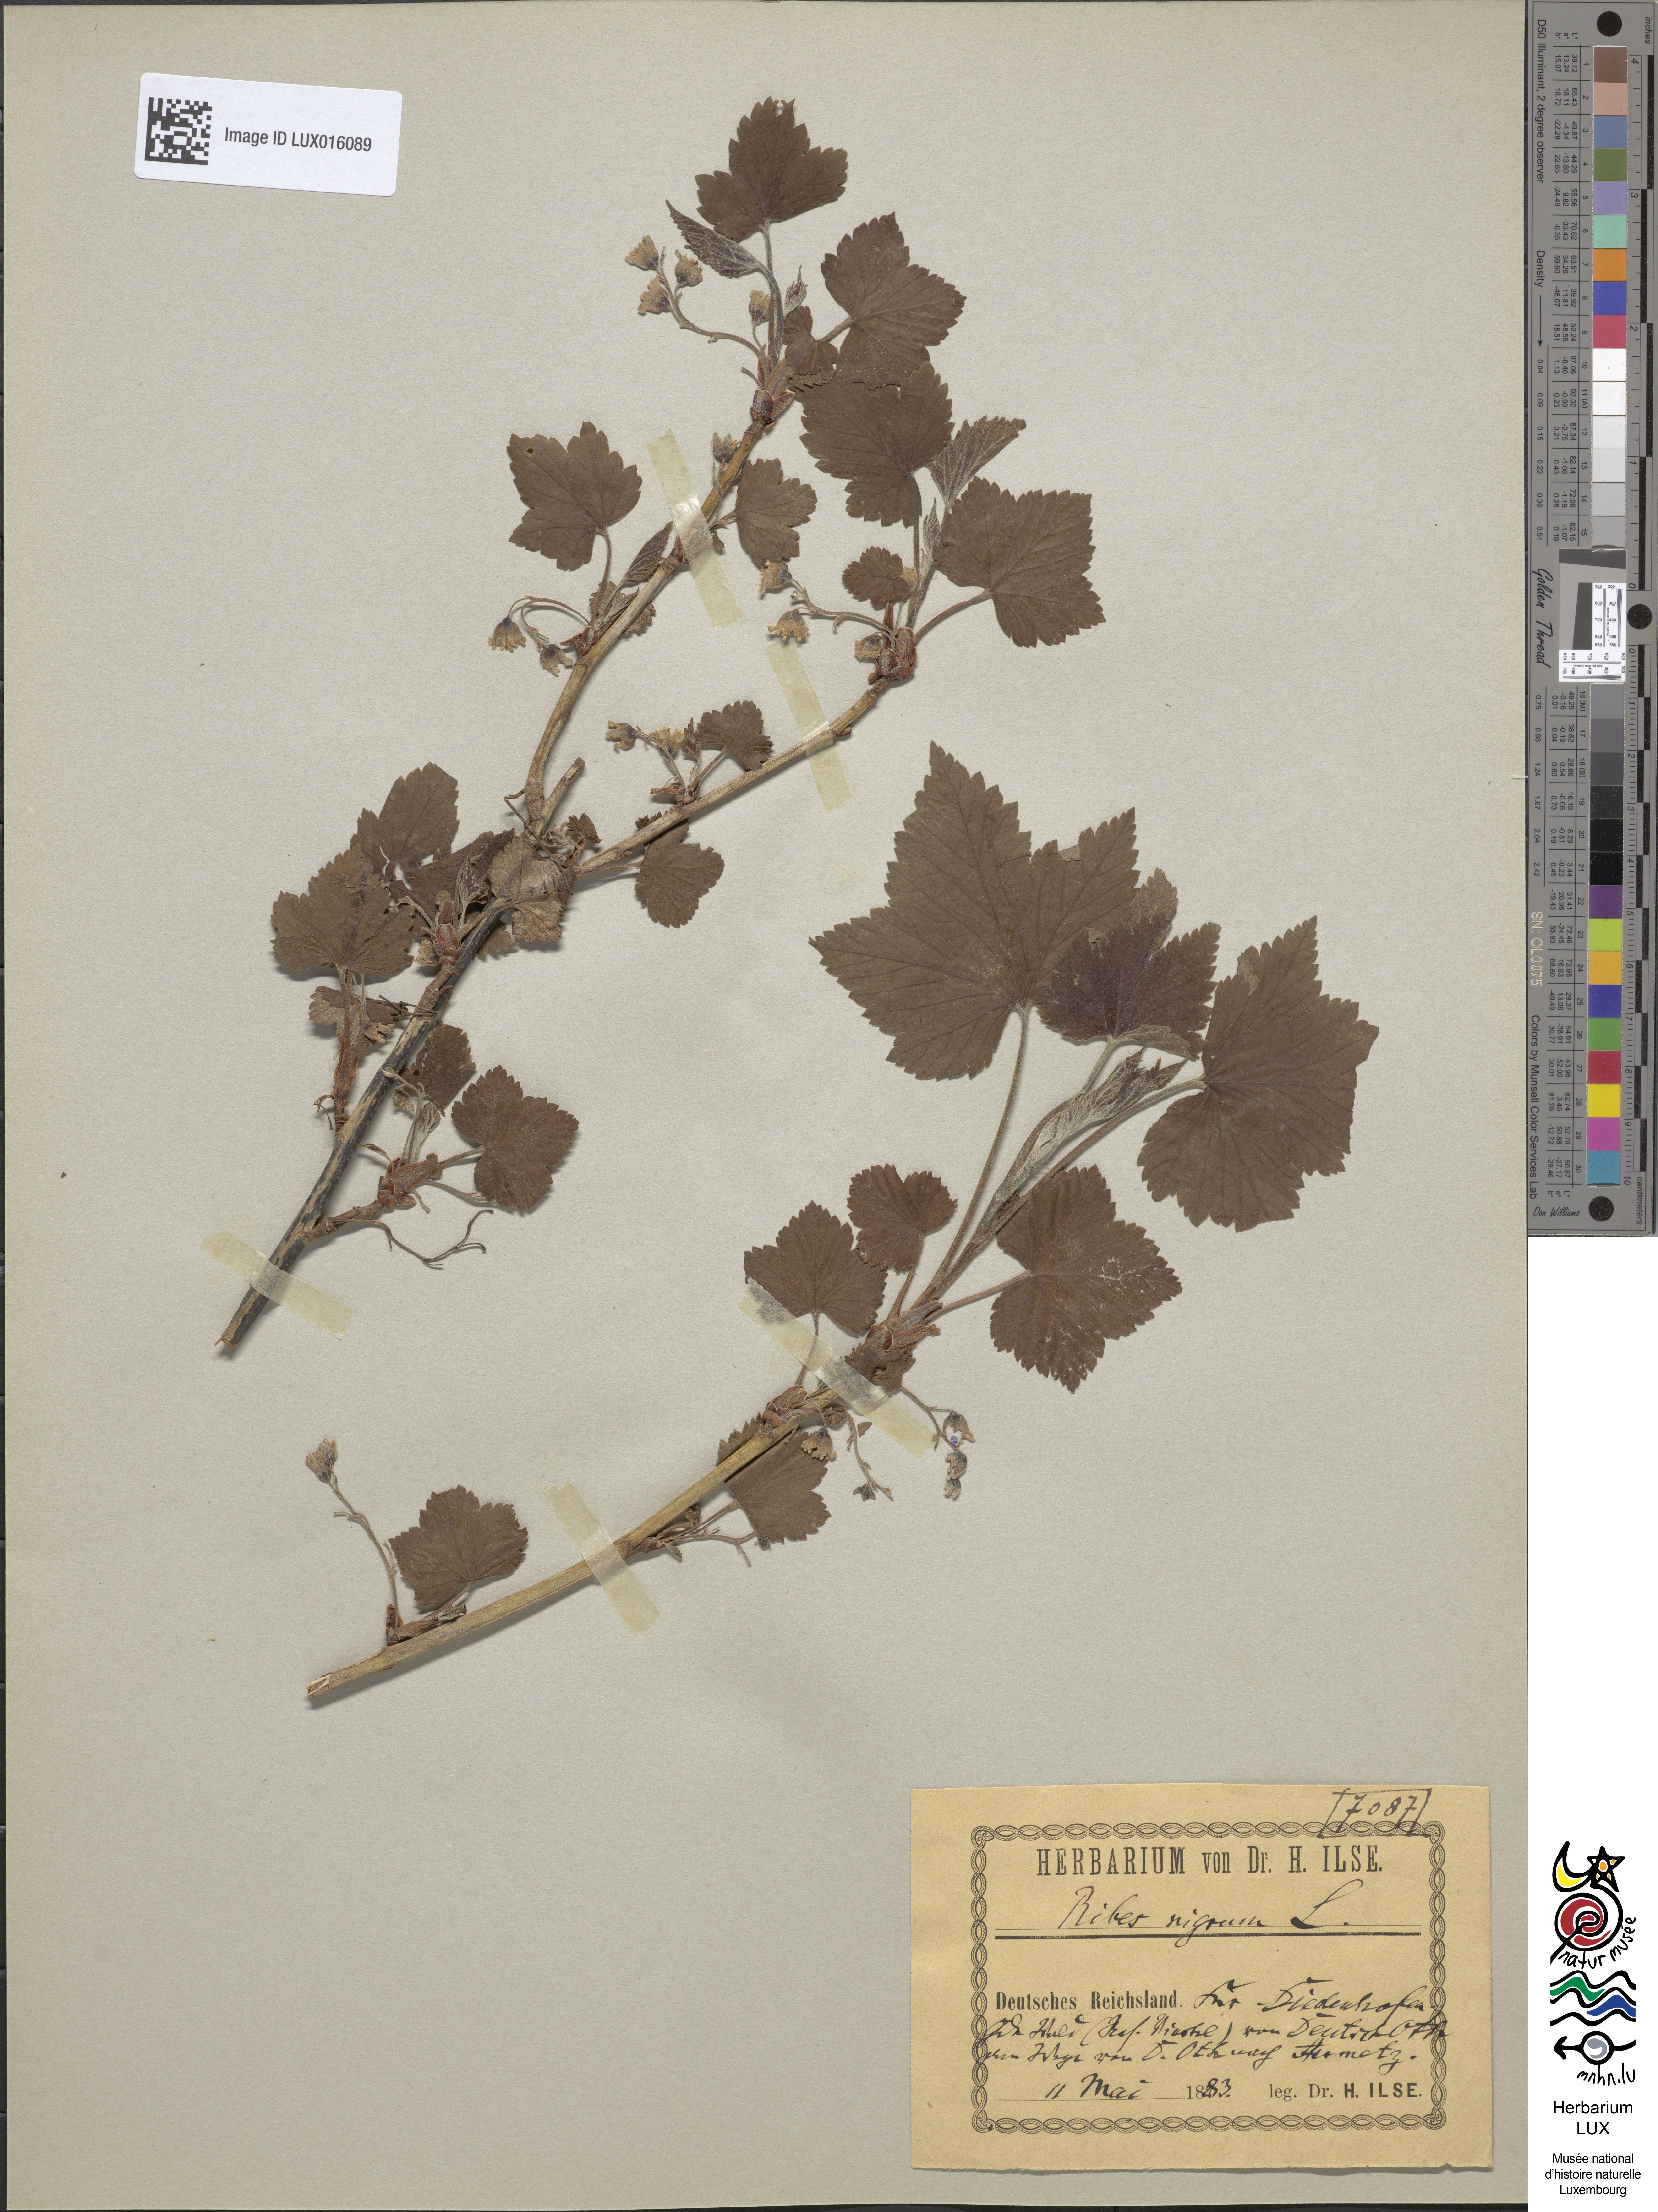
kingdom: Plantae
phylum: Tracheophyta
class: Magnoliopsida
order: Saxifragales
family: Grossulariaceae
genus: Ribes
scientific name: Ribes nigrum
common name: Black currant
